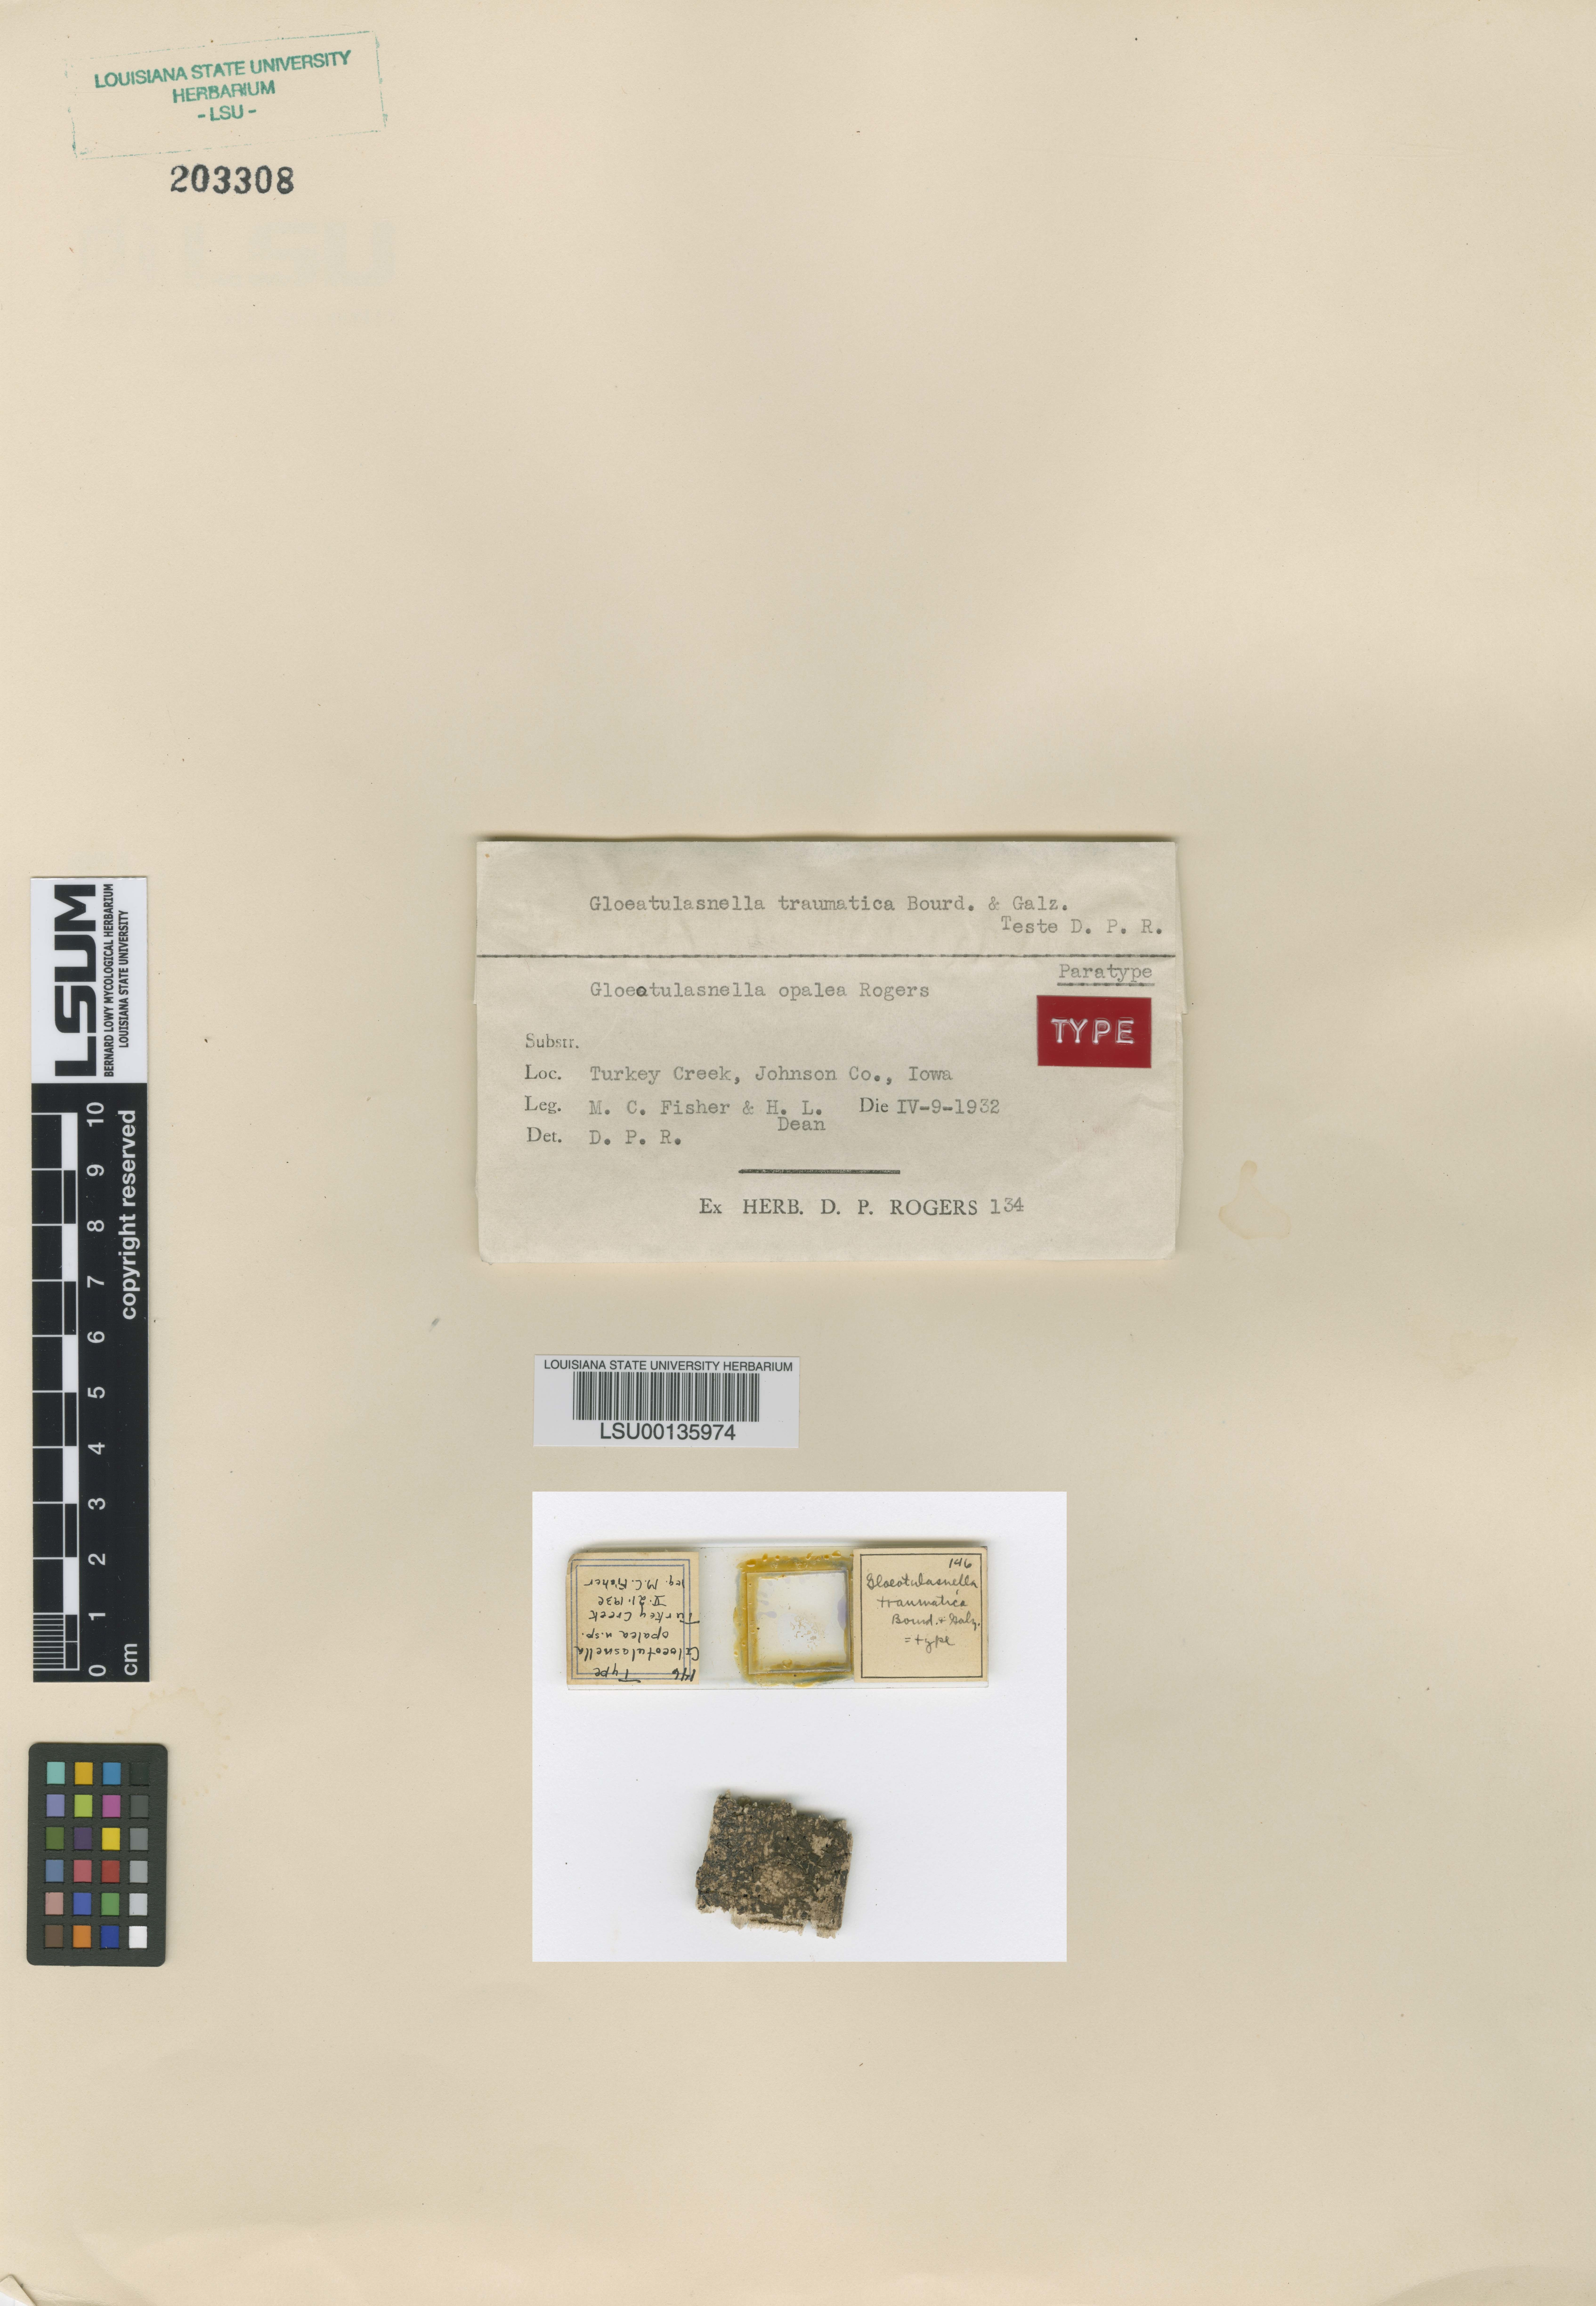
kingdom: Fungi
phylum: Basidiomycota
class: Agaricomycetes
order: Cantharellales
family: Tulasnellaceae
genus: Gloeotulasnella
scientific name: Gloeotulasnella opalea
